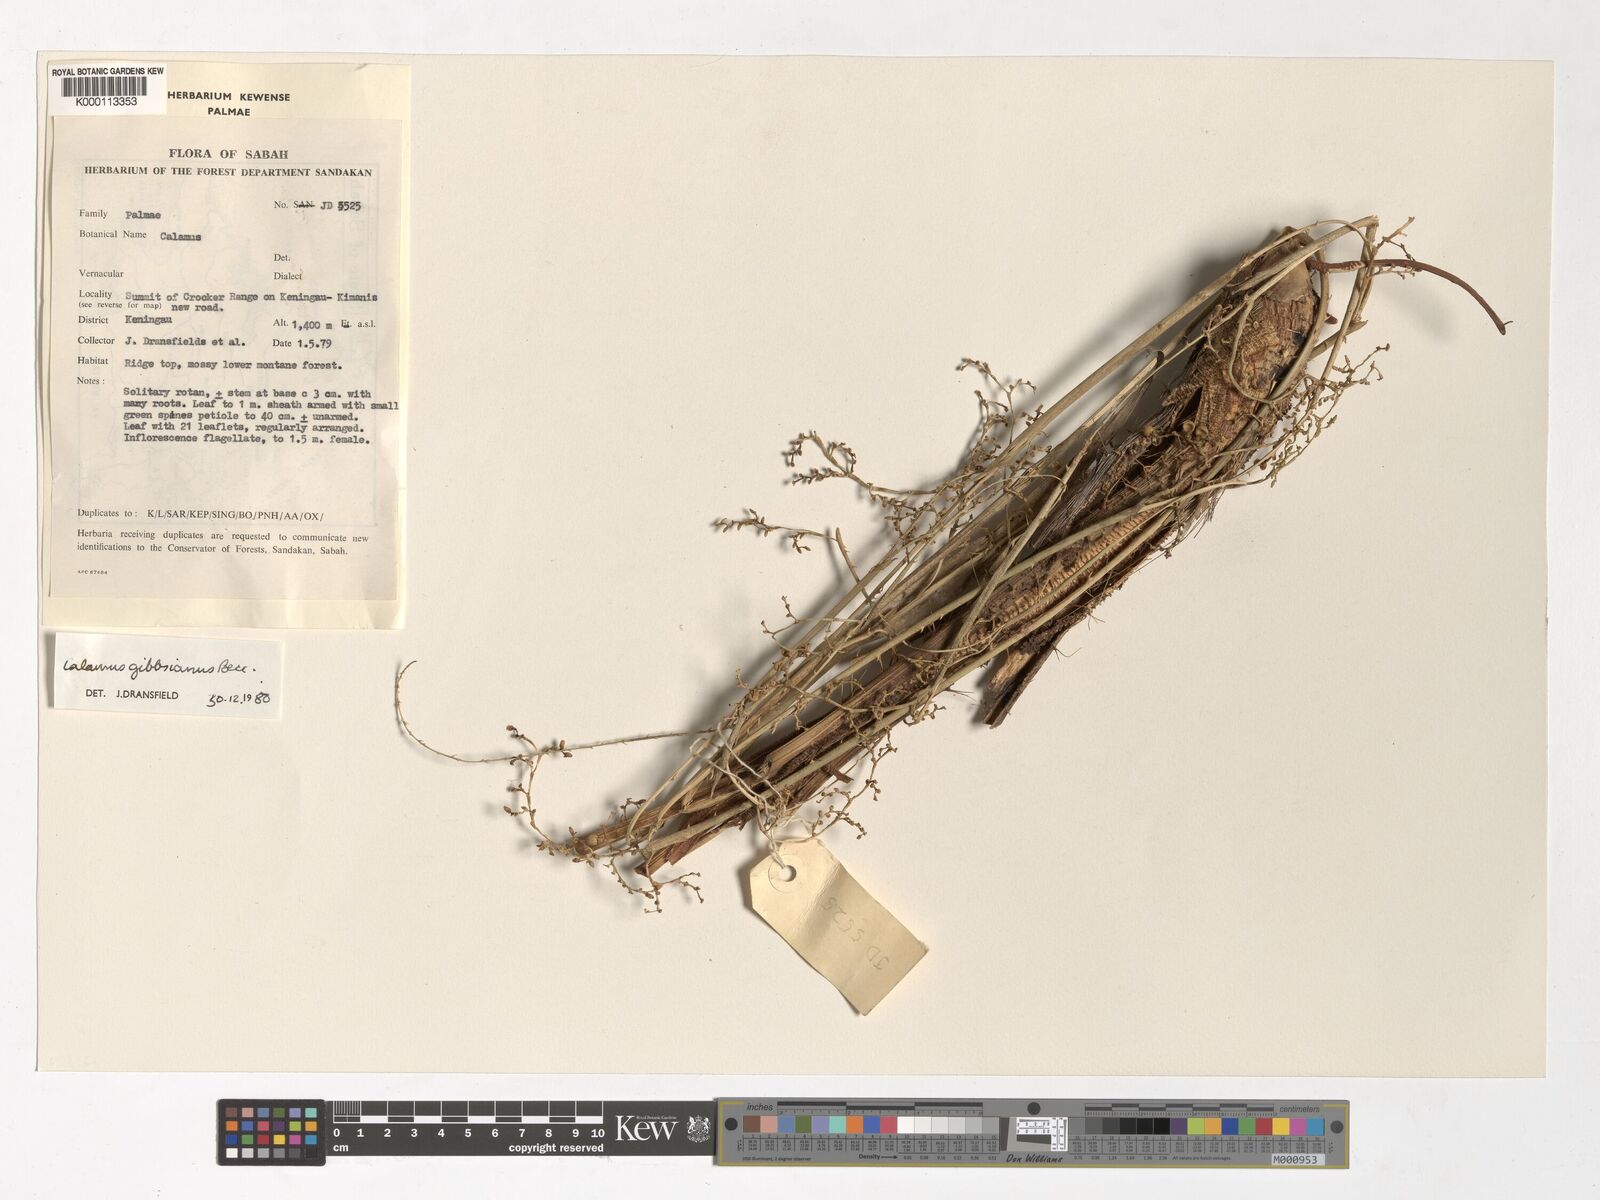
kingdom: Plantae
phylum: Tracheophyta
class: Liliopsida
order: Arecales
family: Arecaceae
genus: Calamus
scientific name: Calamus gibbsianus
